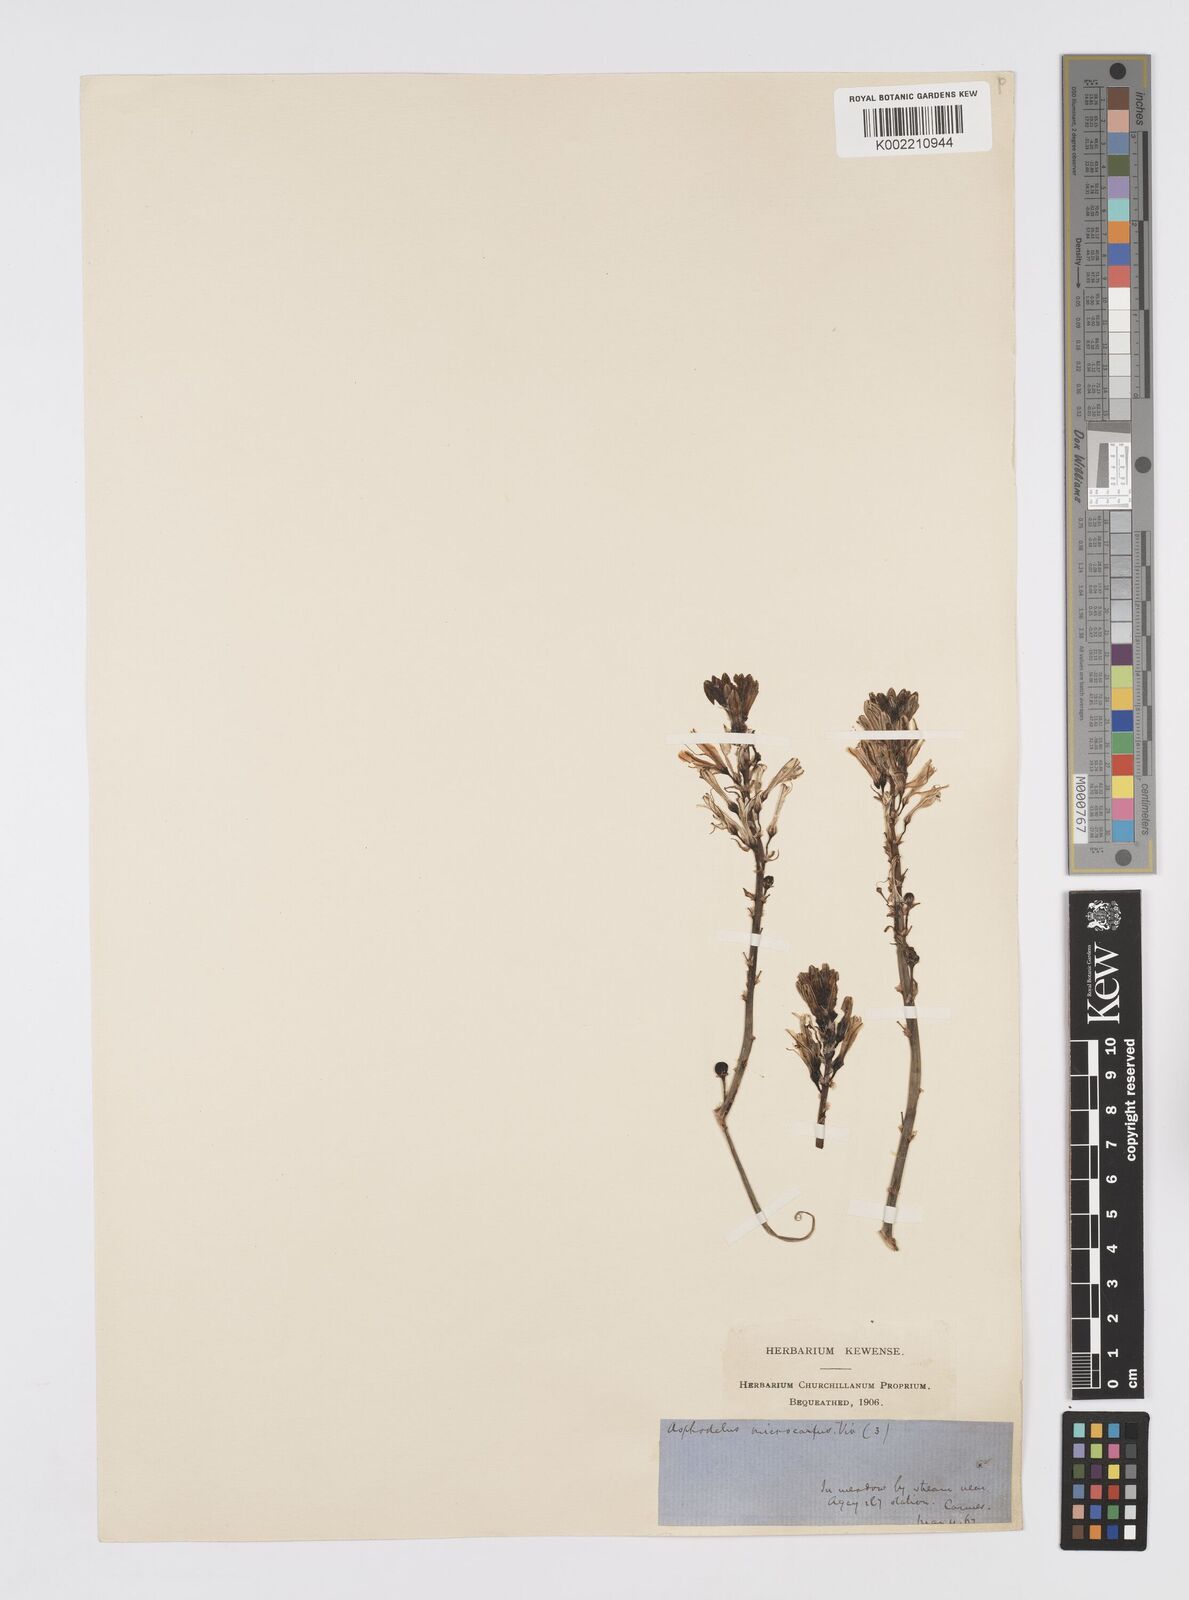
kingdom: Plantae
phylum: Tracheophyta
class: Liliopsida
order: Asparagales
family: Asphodelaceae
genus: Asphodelus
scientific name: Asphodelus ramosus
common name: Silverrod
